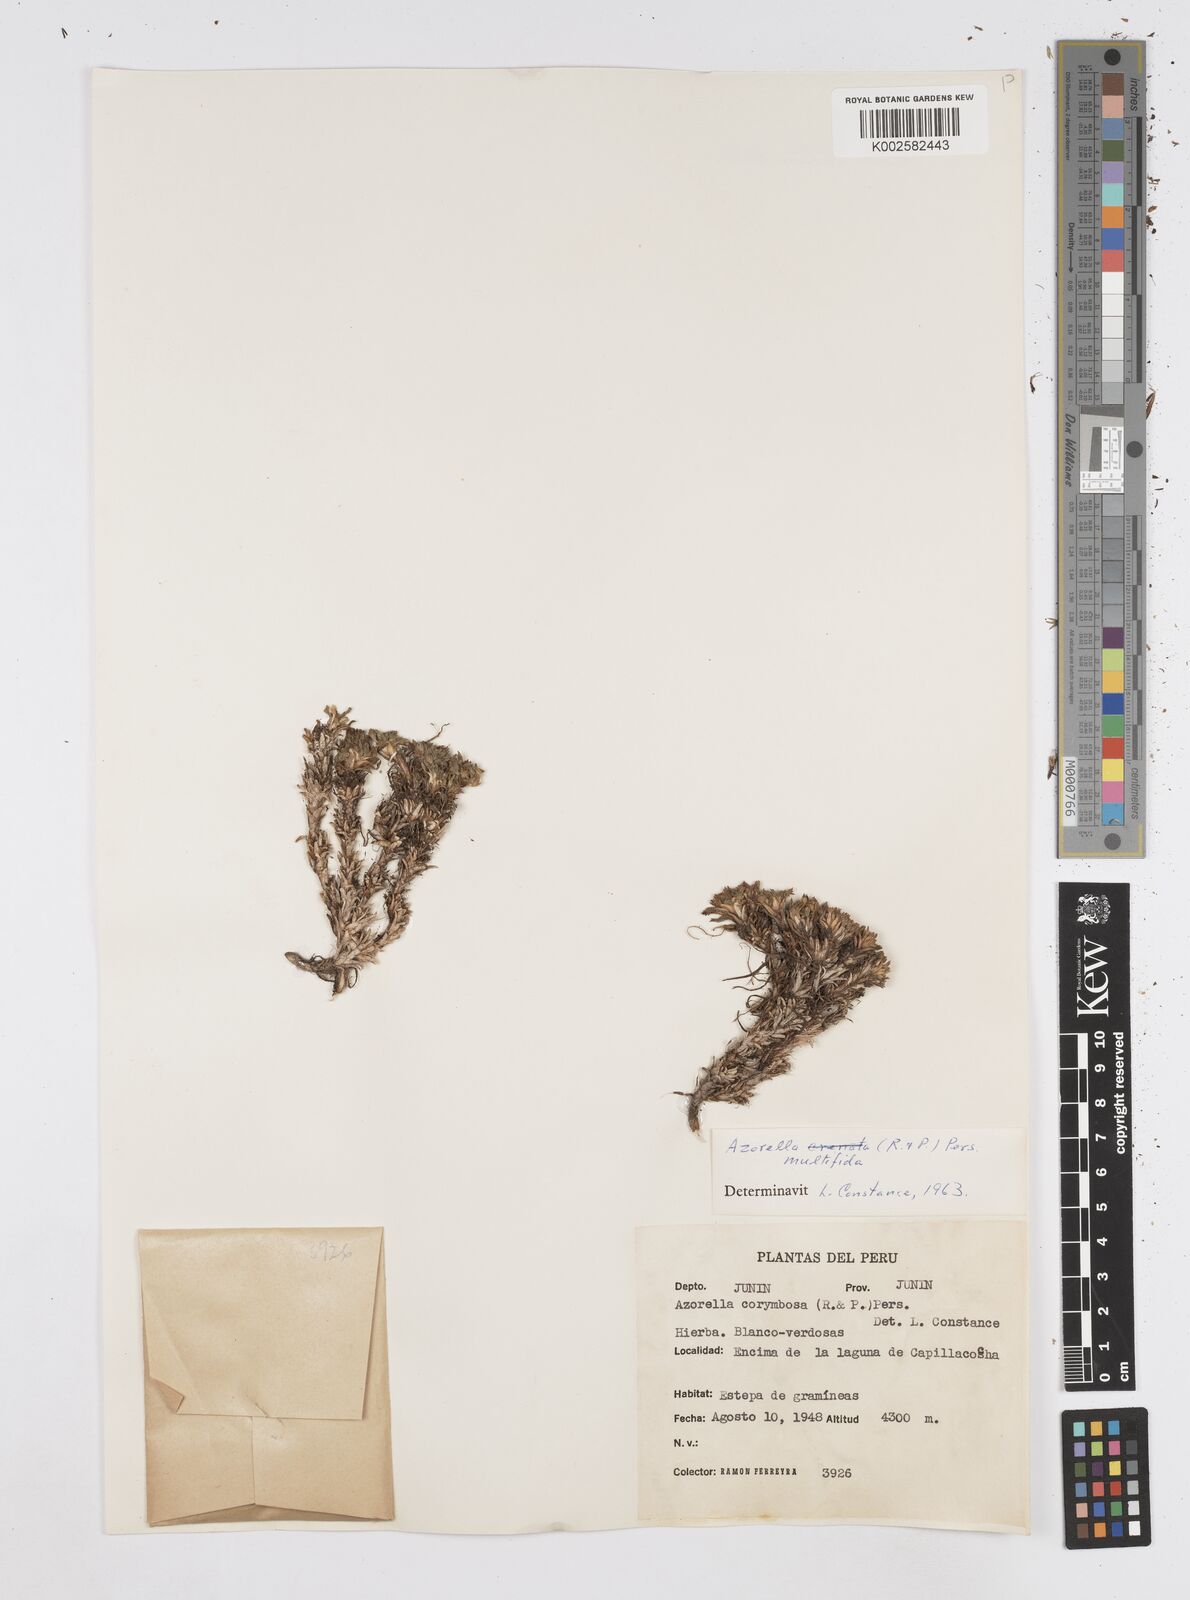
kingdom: Plantae
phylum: Tracheophyta
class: Magnoliopsida
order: Apiales
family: Apiaceae
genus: Azorella
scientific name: Azorella multifida
